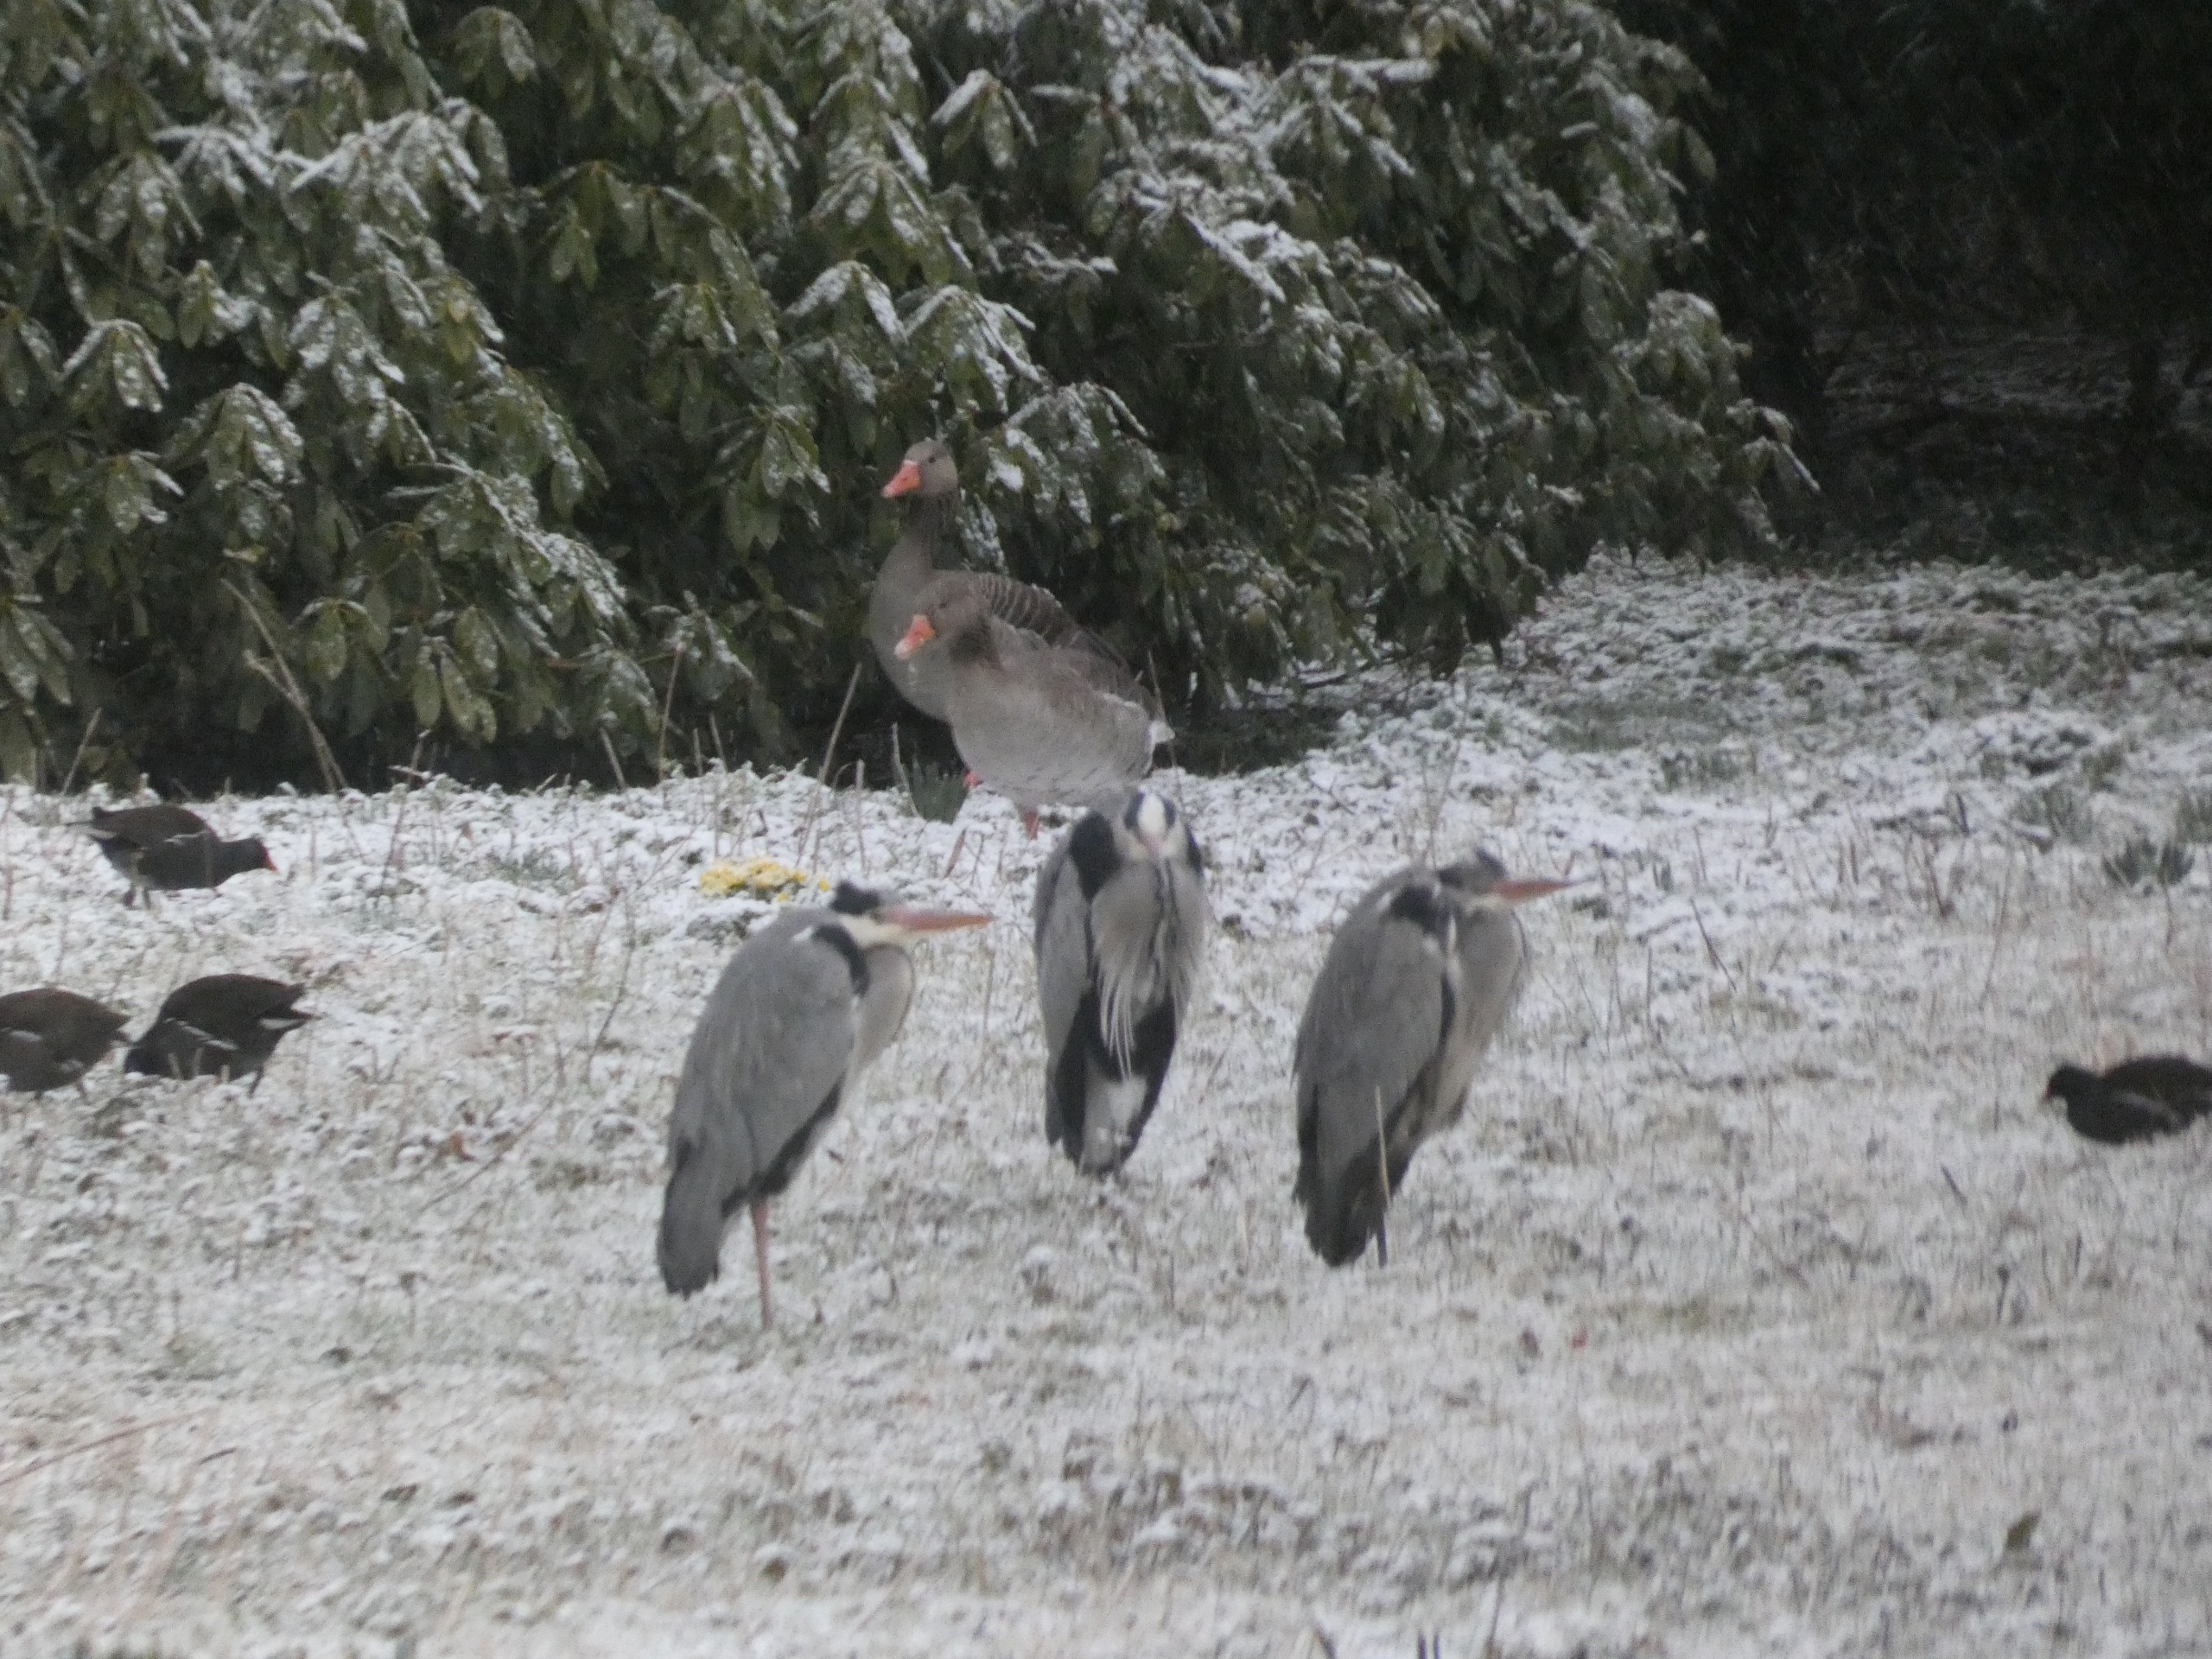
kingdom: Animalia
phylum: Chordata
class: Aves
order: Anseriformes
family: Anatidae
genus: Anser
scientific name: Anser anser
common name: Grågås
